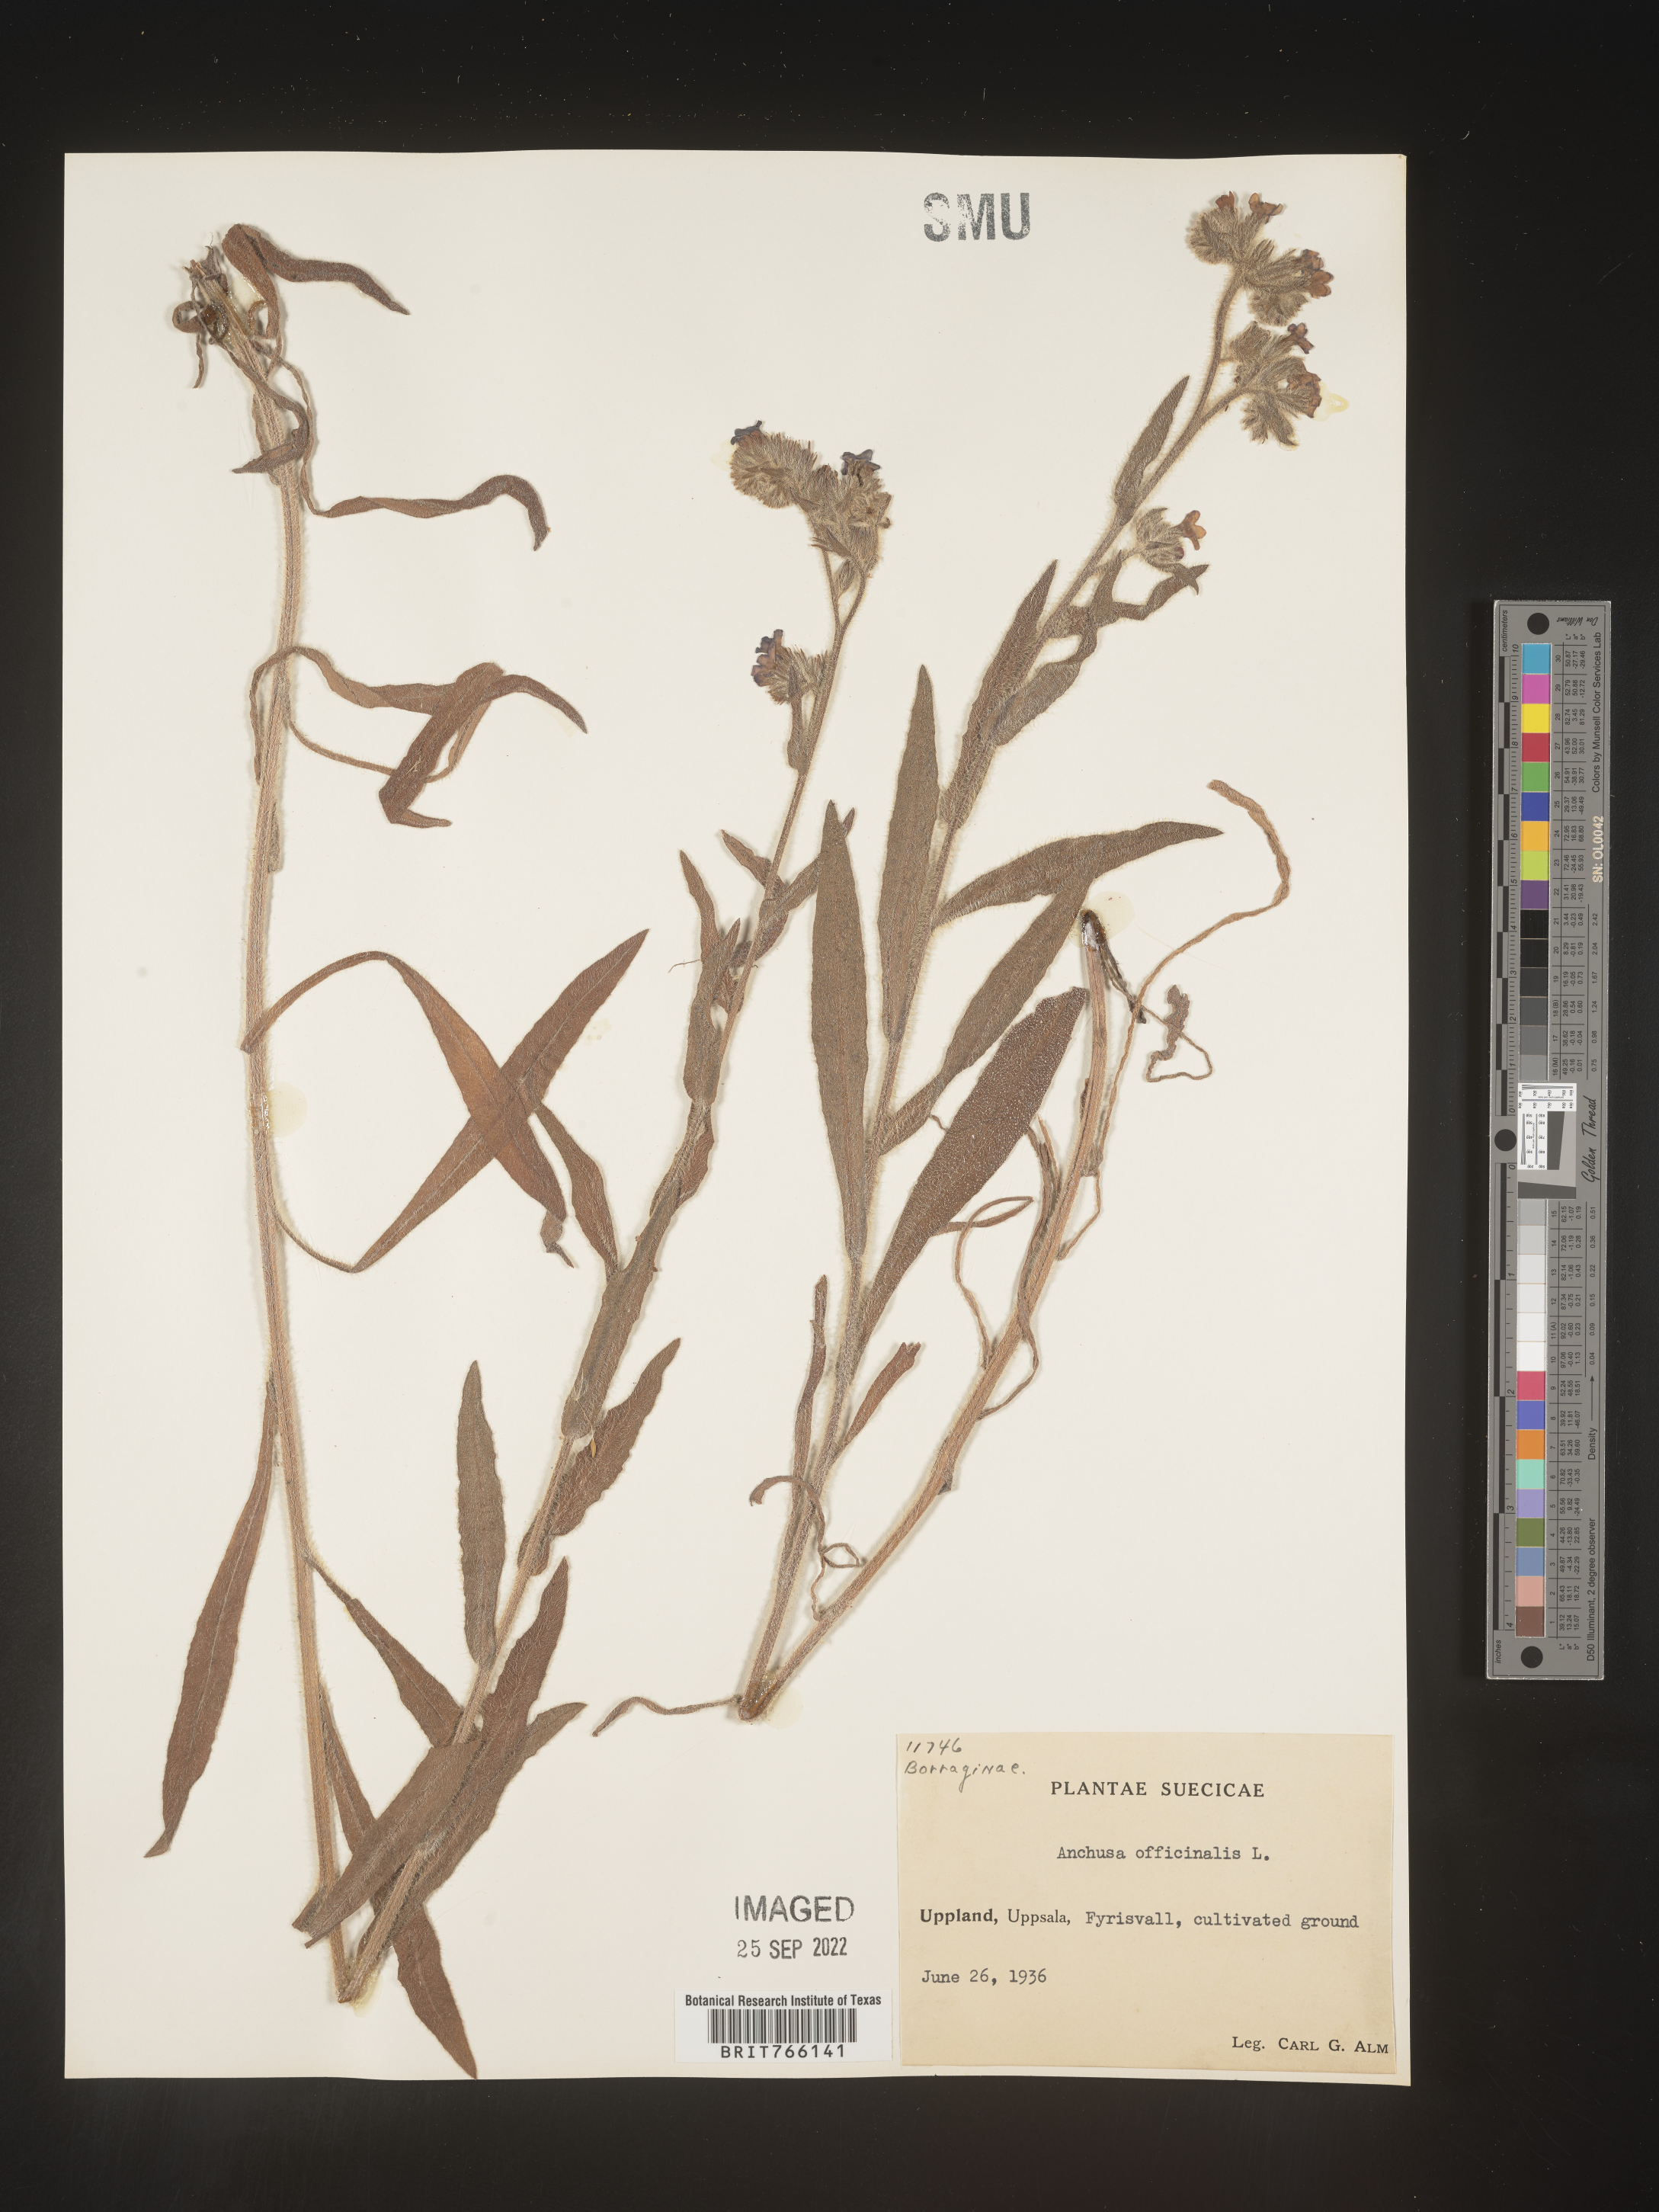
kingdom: Plantae
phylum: Tracheophyta
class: Magnoliopsida
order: Boraginales
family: Boraginaceae
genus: Anchusa
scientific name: Anchusa
